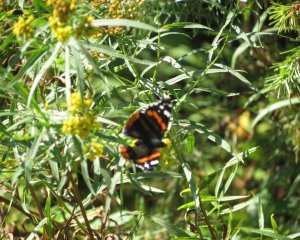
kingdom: Animalia
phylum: Arthropoda
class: Insecta
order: Lepidoptera
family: Nymphalidae
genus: Vanessa
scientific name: Vanessa atalanta
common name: Red Admiral
